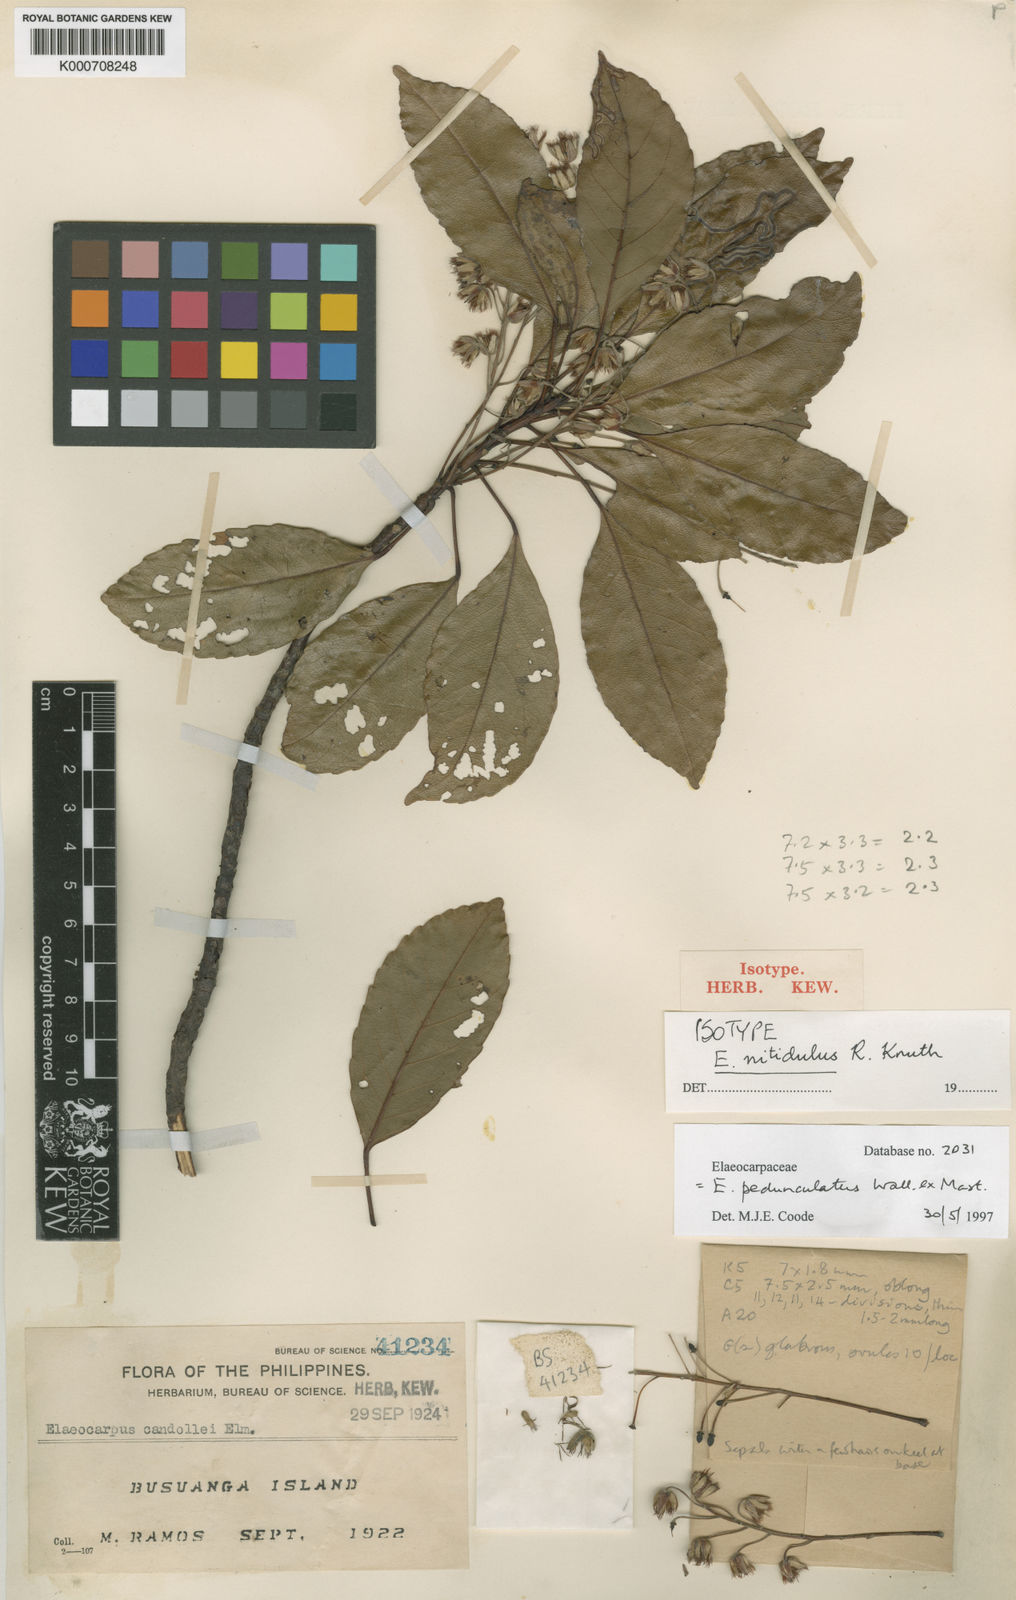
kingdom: Plantae
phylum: Tracheophyta
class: Magnoliopsida
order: Oxalidales
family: Elaeocarpaceae
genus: Elaeocarpus
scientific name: Elaeocarpus pedunculatus
